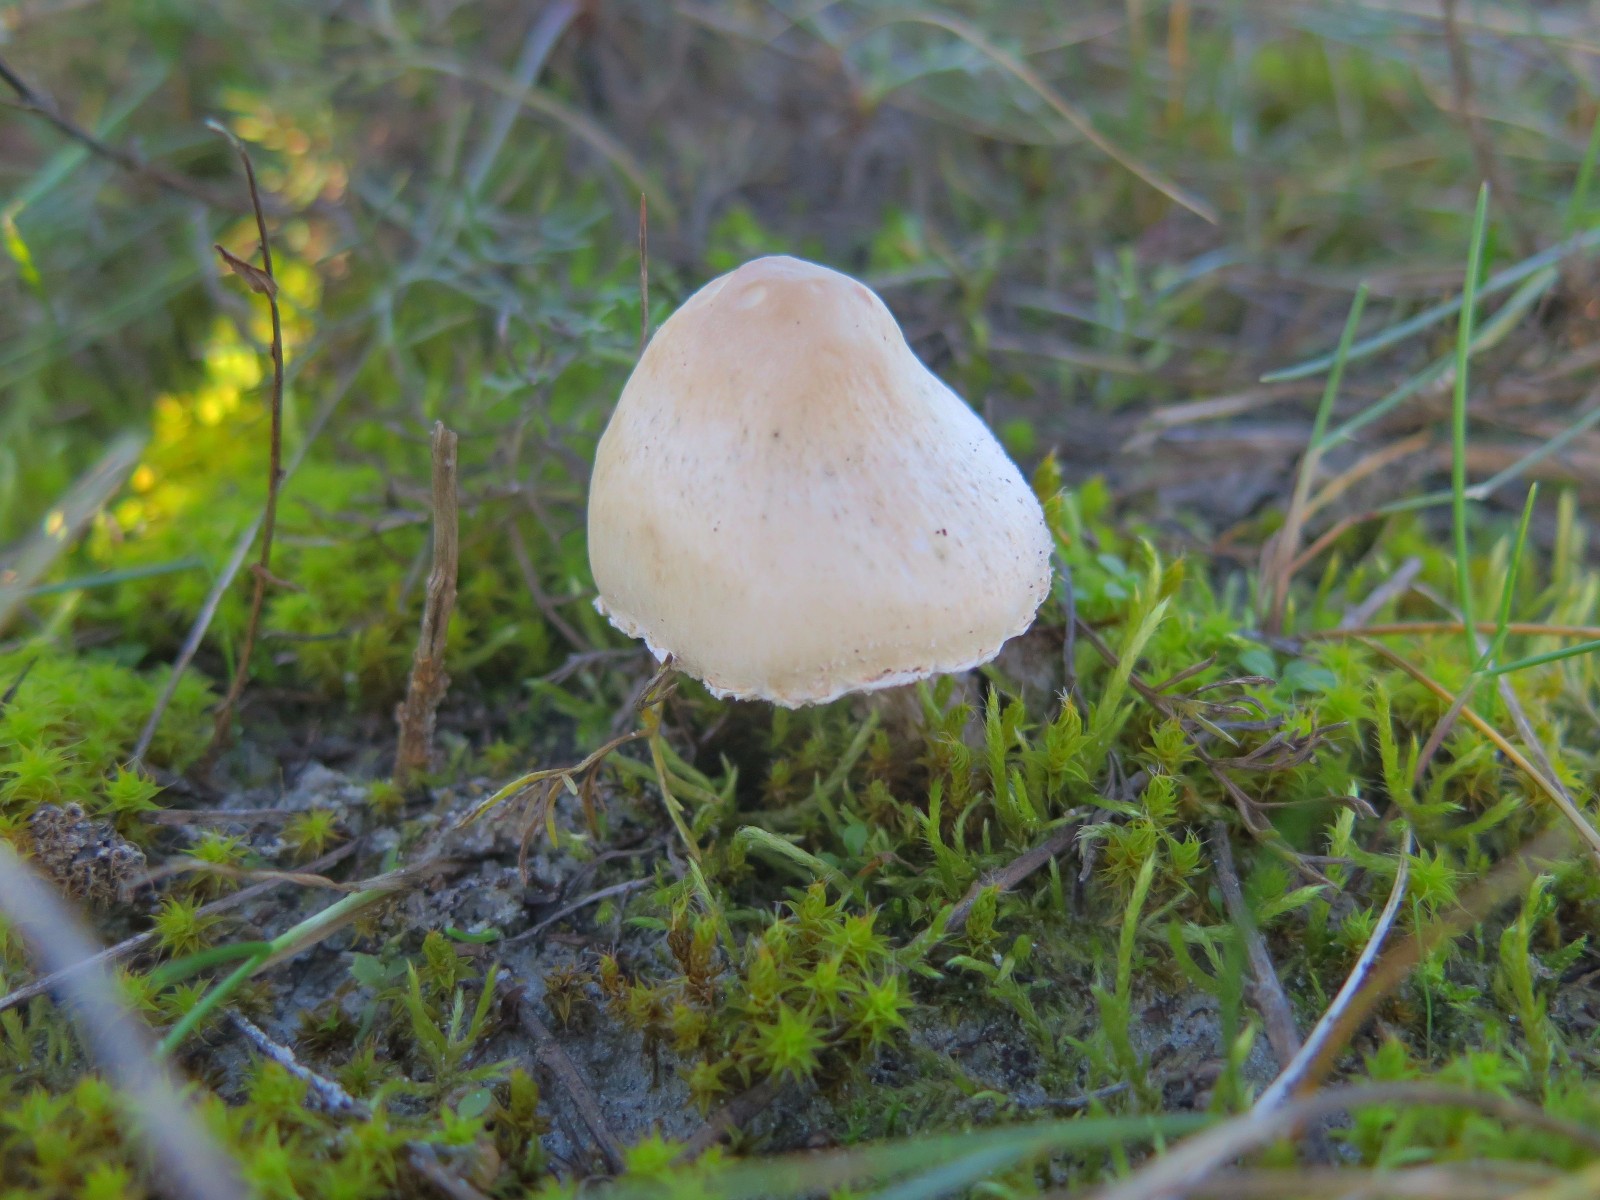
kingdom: Fungi
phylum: Basidiomycota
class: Agaricomycetes
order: Agaricales
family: Agaricaceae
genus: Lepiota
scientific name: Lepiota erminea
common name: hvid parasolhat
